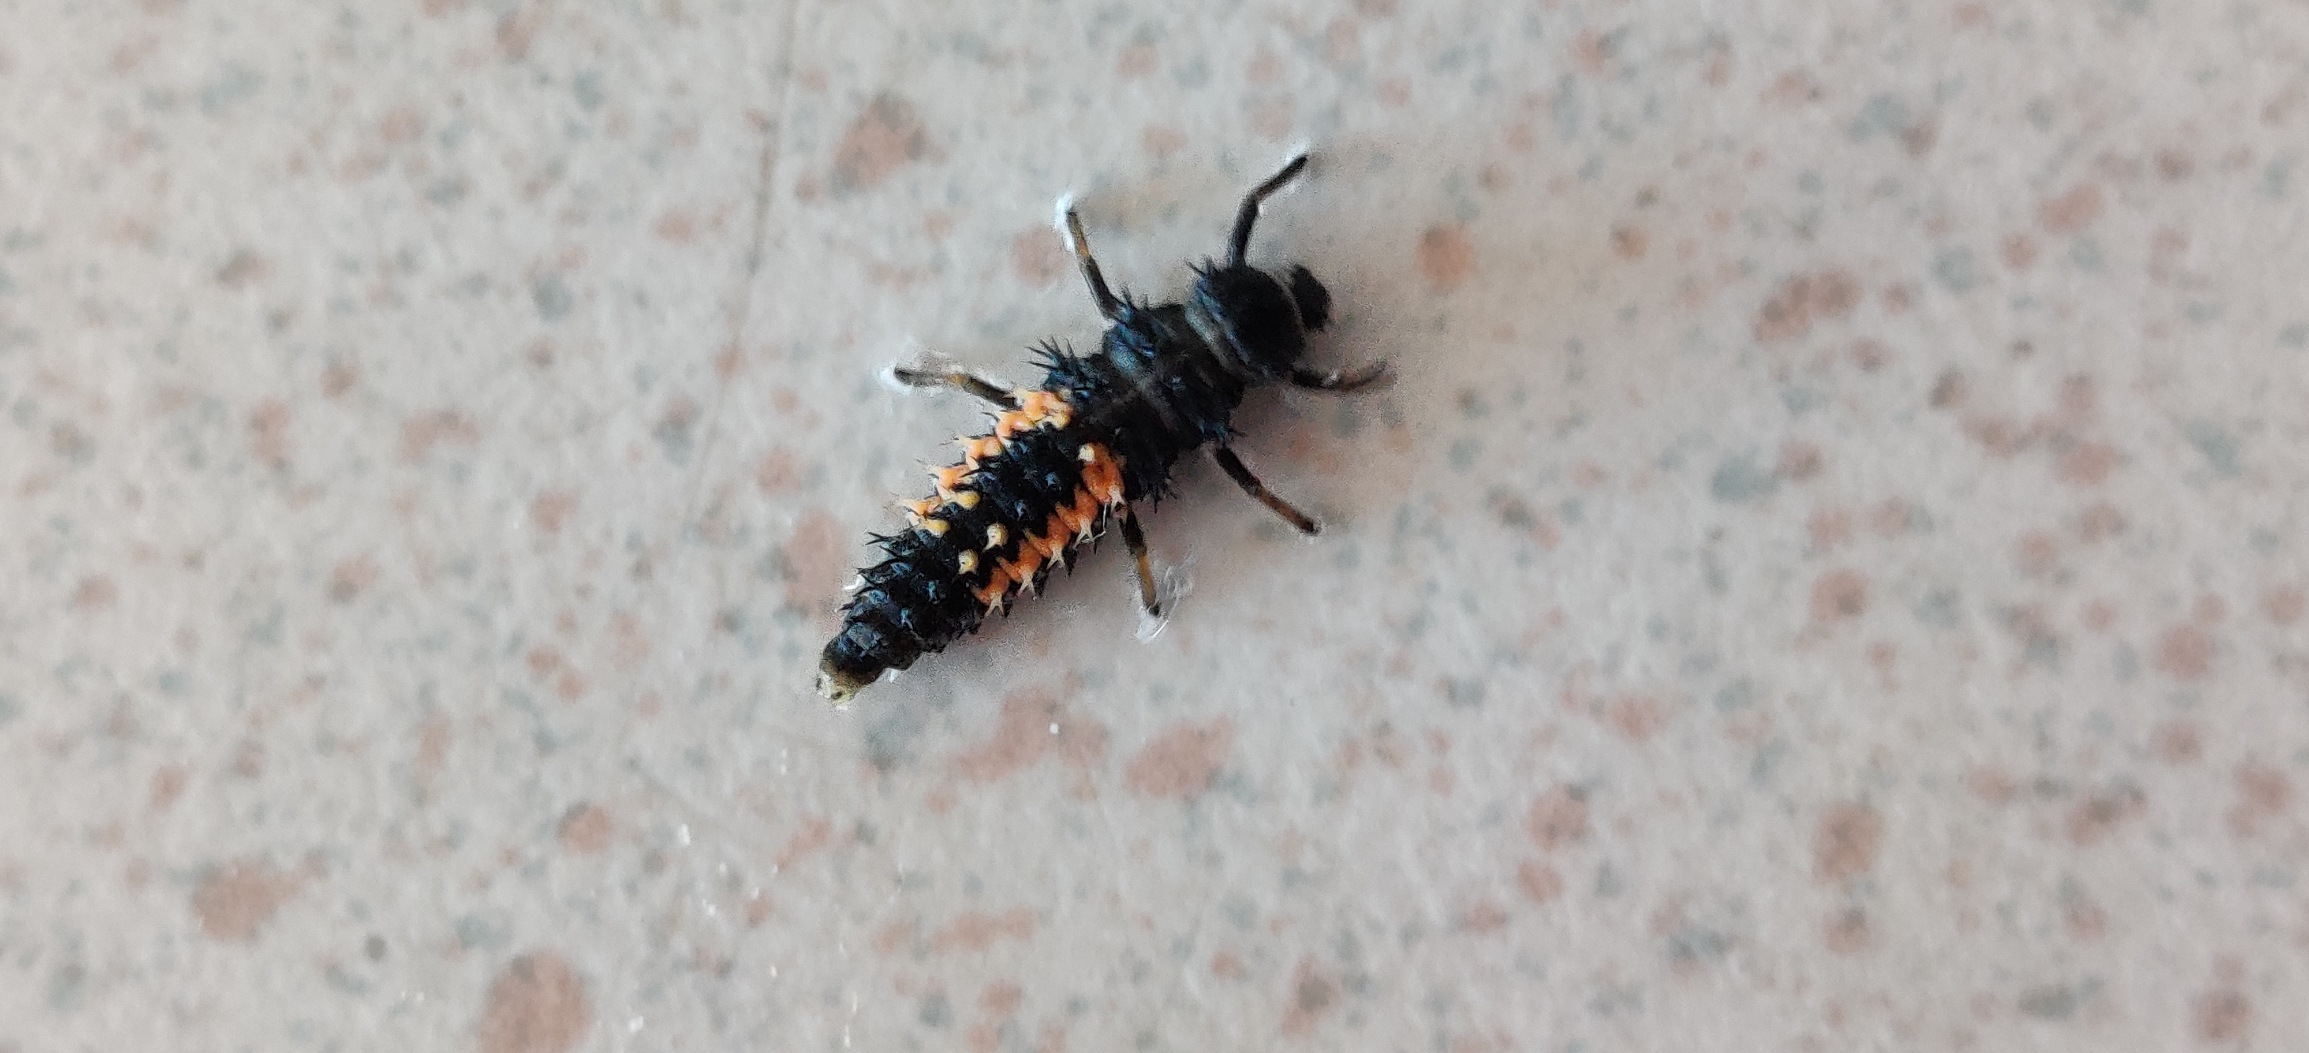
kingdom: Animalia
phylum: Arthropoda
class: Insecta
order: Coleoptera
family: Coccinellidae
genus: Harmonia
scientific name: Harmonia axyridis
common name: Harlekinmariehøne
